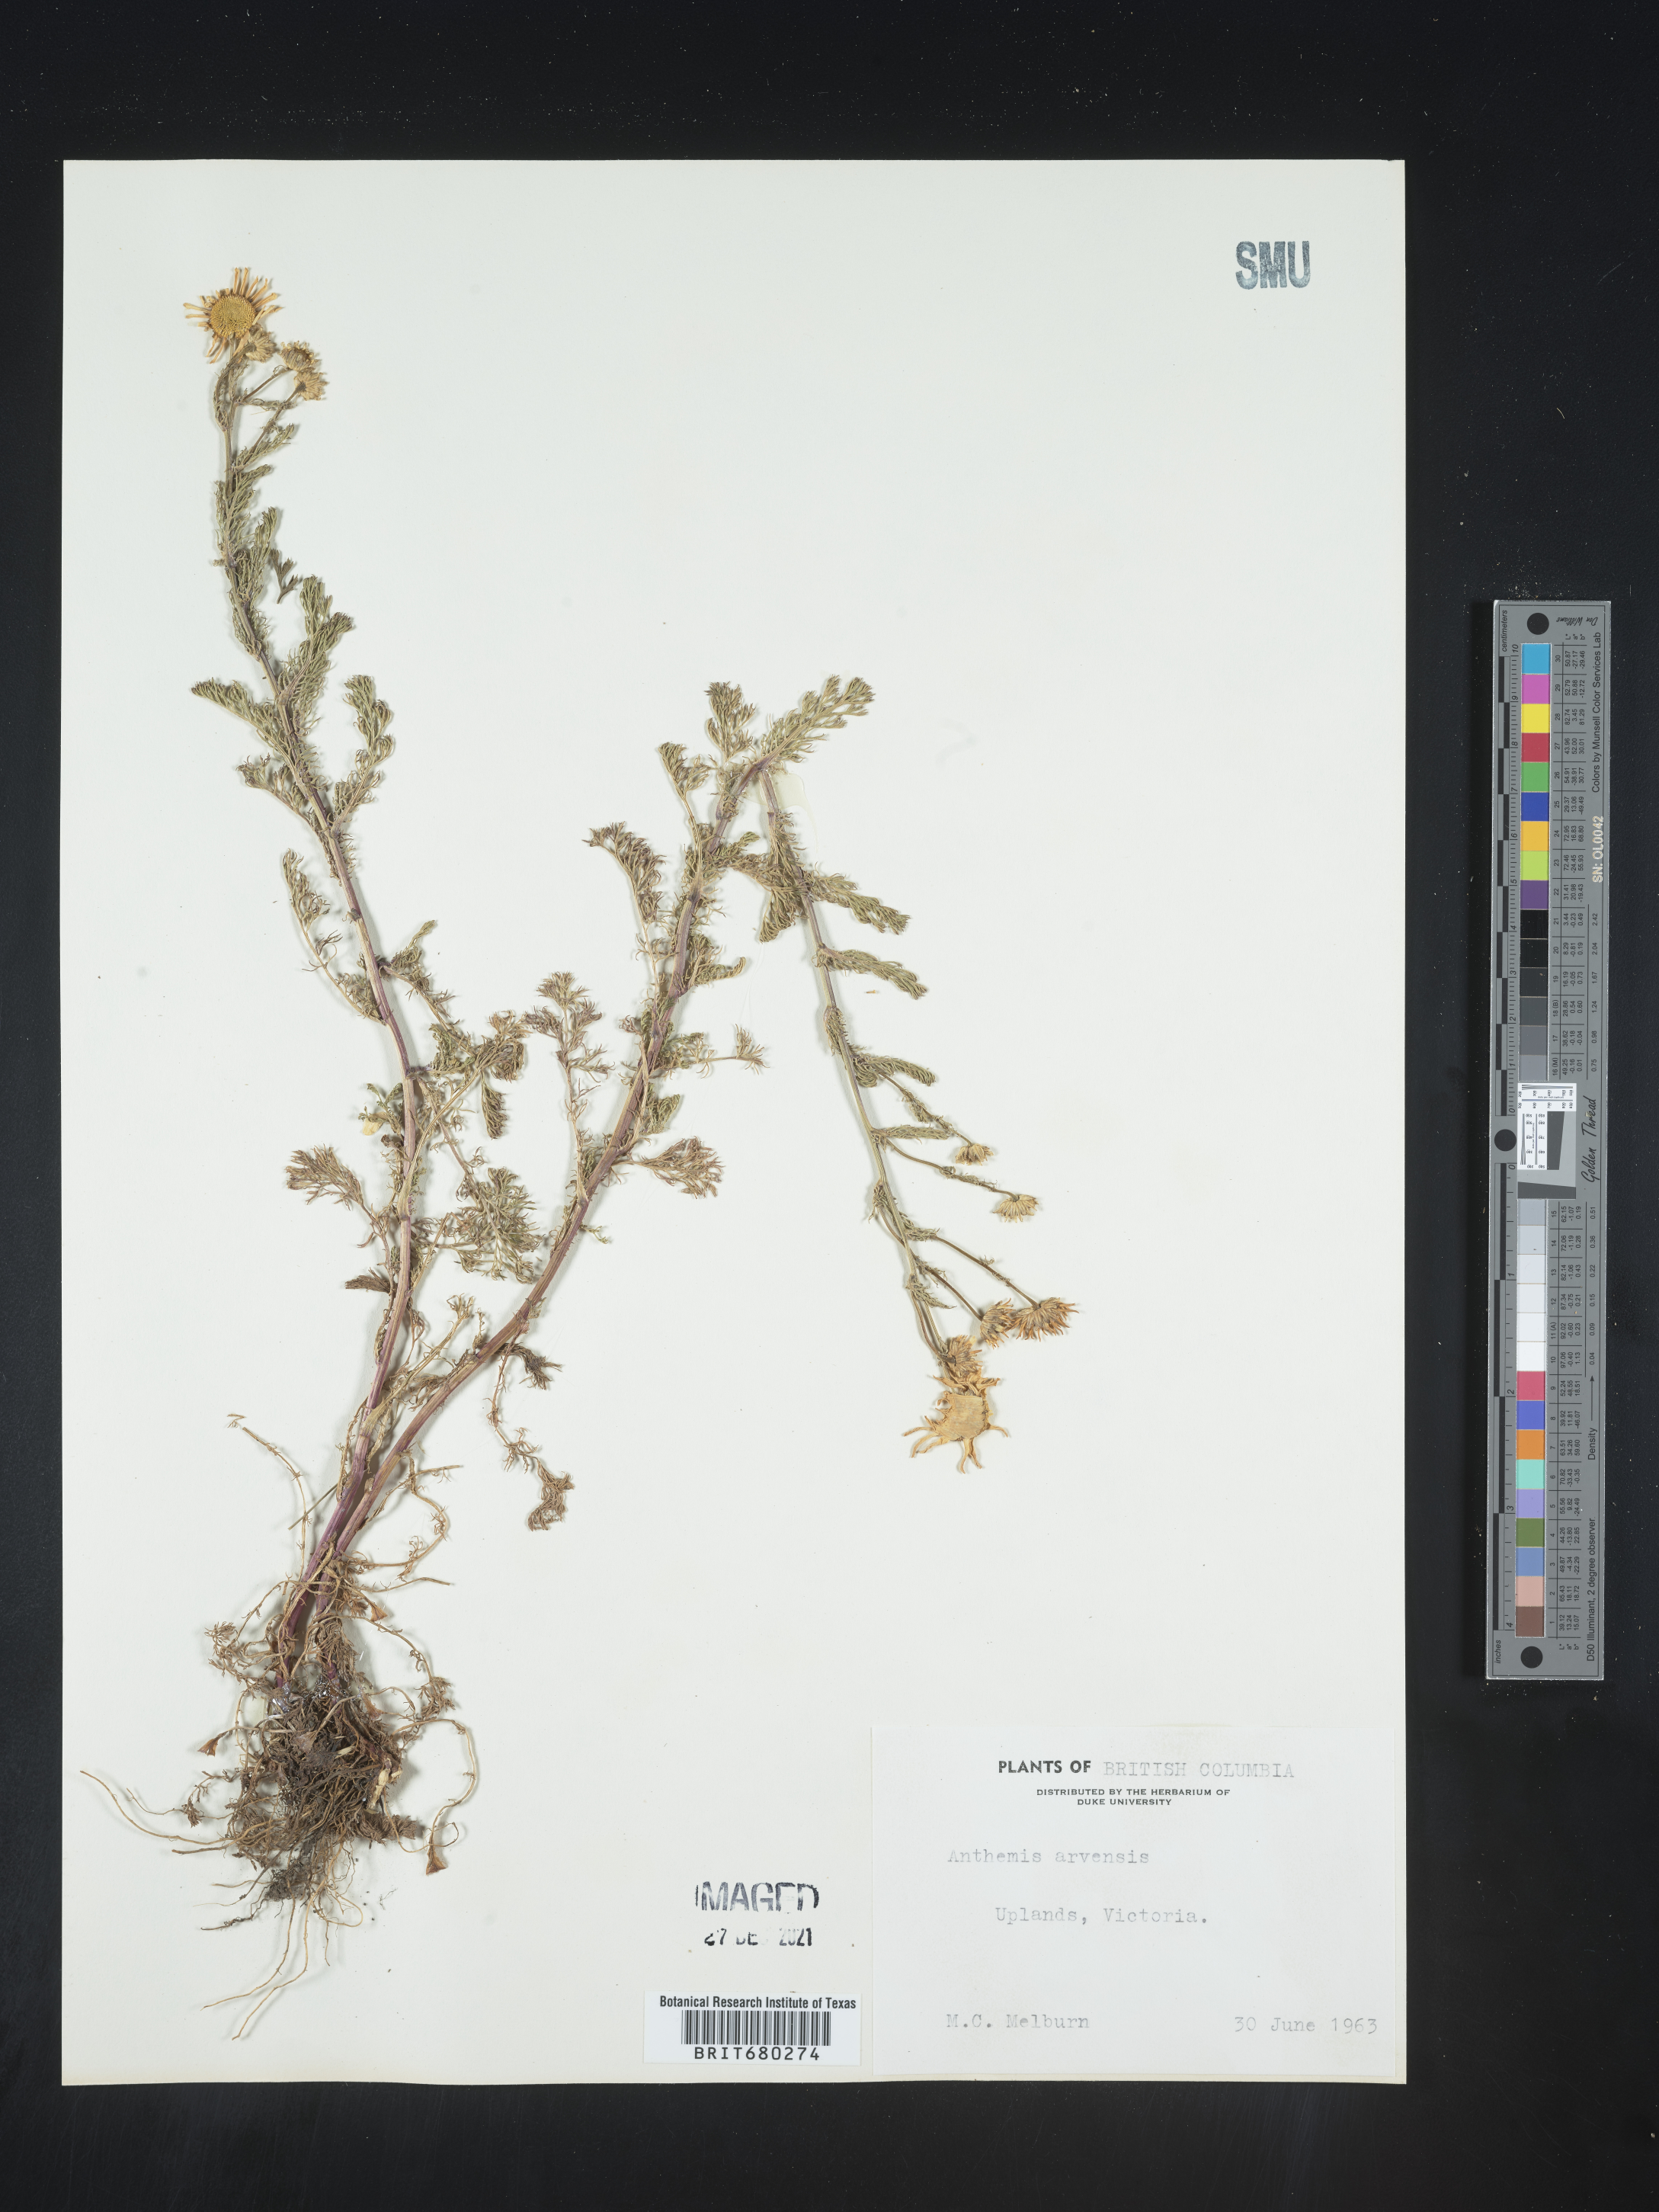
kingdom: Plantae
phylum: Tracheophyta
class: Magnoliopsida
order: Asterales
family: Asteraceae
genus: Anthemis
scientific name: Anthemis arvensis
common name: Corn chamomile
